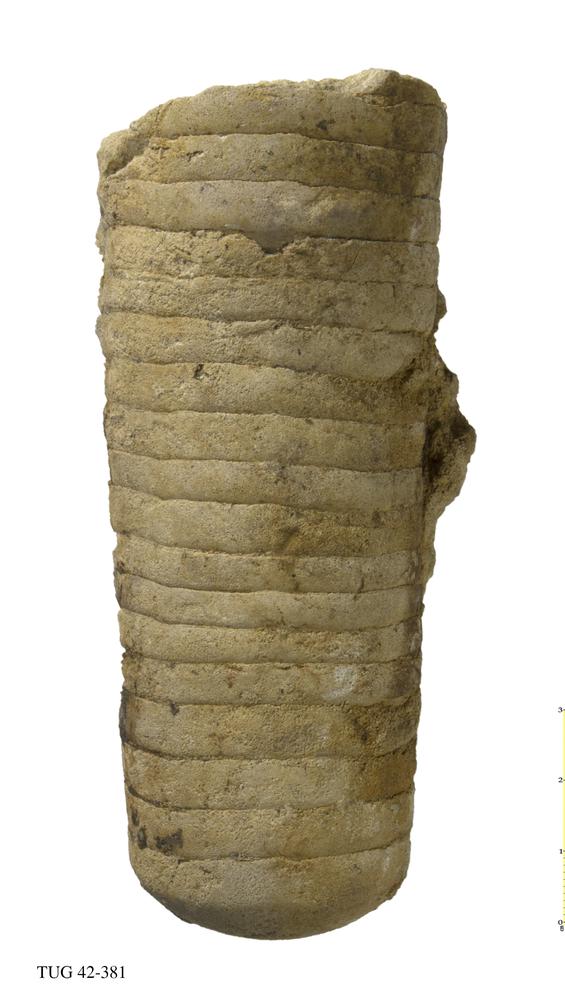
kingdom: Animalia
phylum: Mollusca
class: Cephalopoda
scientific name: Cephalopoda
